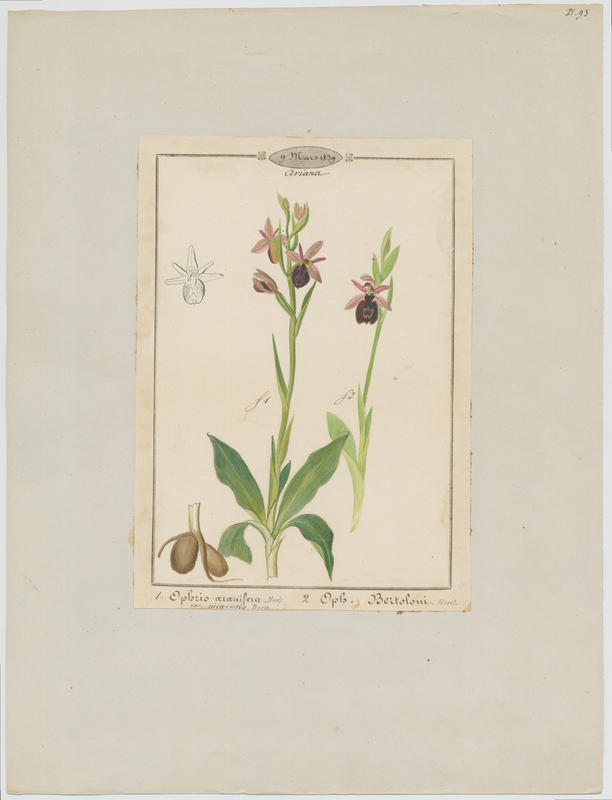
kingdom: Plantae
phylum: Tracheophyta
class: Liliopsida
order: Asparagales
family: Orchidaceae
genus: Ophrys
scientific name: Ophrys bertolonii
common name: Bertoloni's bee orchid
